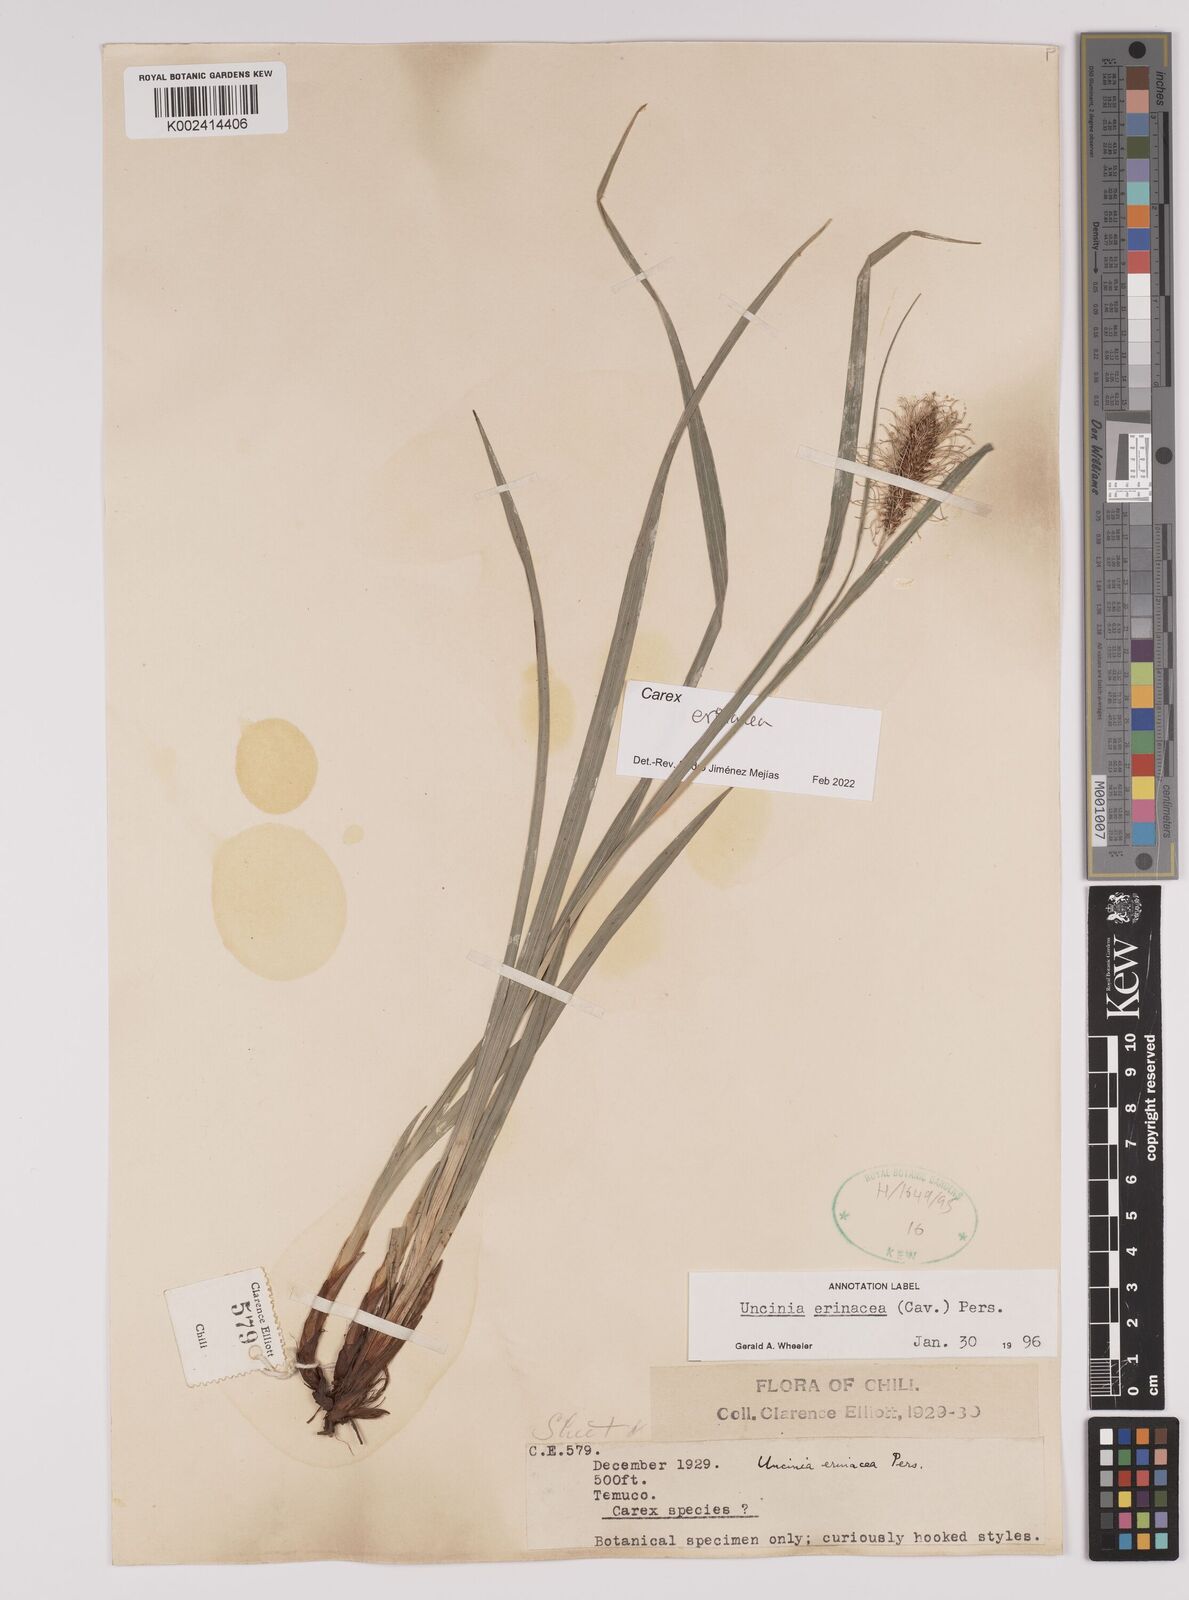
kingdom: Plantae
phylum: Tracheophyta
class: Liliopsida
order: Poales
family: Cyperaceae
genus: Carex
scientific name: Carex erinacea
